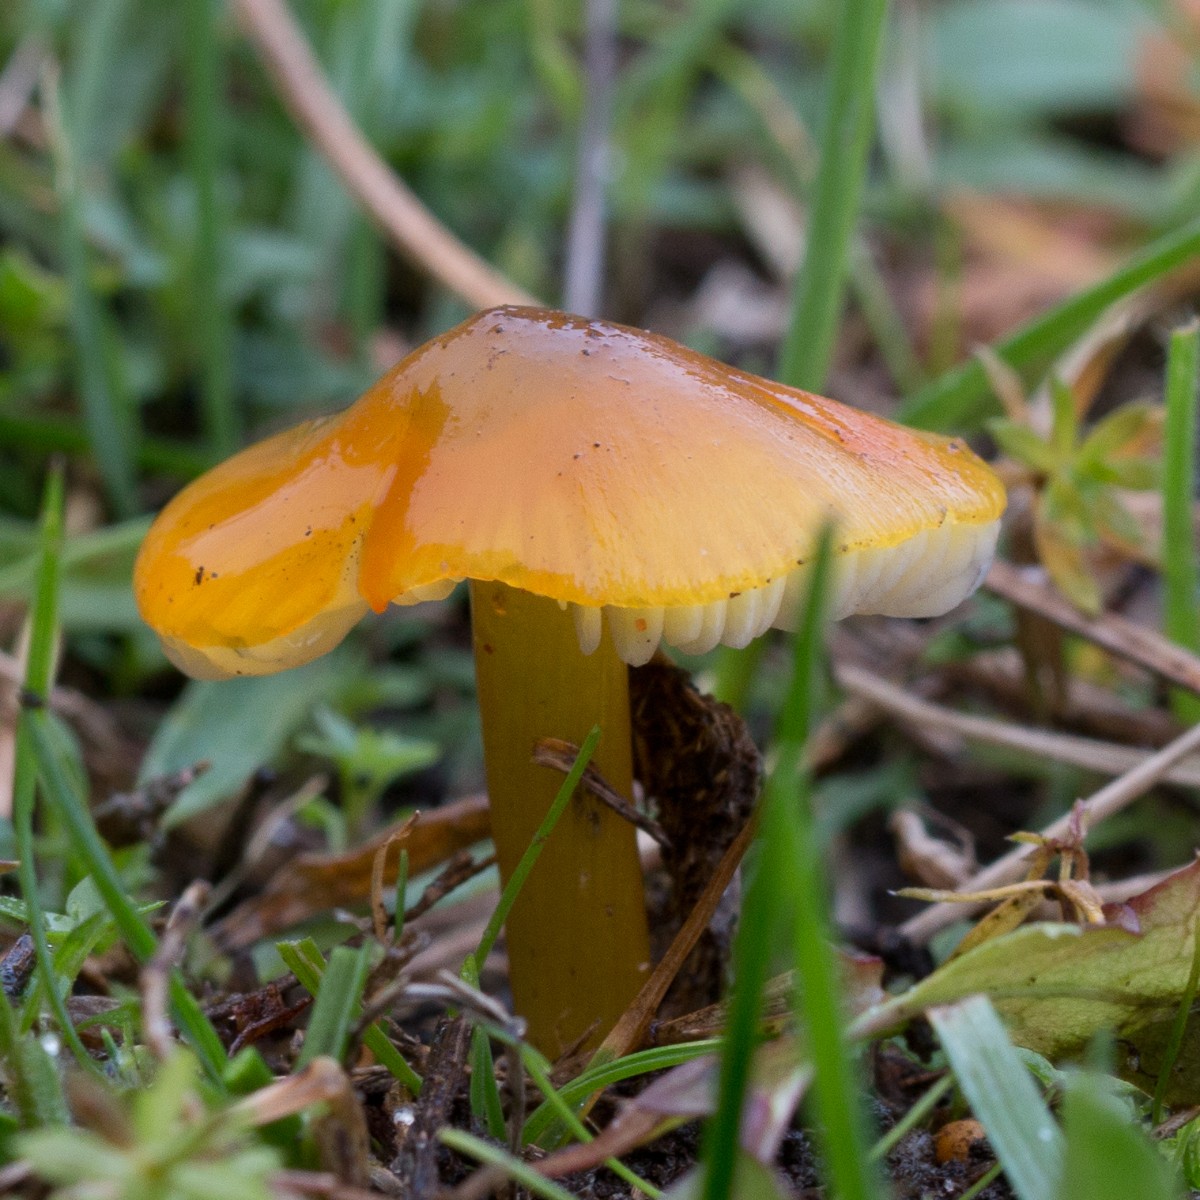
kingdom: Fungi
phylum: Basidiomycota
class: Agaricomycetes
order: Agaricales
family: Hygrophoraceae
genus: Hygrocybe
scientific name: Hygrocybe conica
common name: kegle-vokshat
